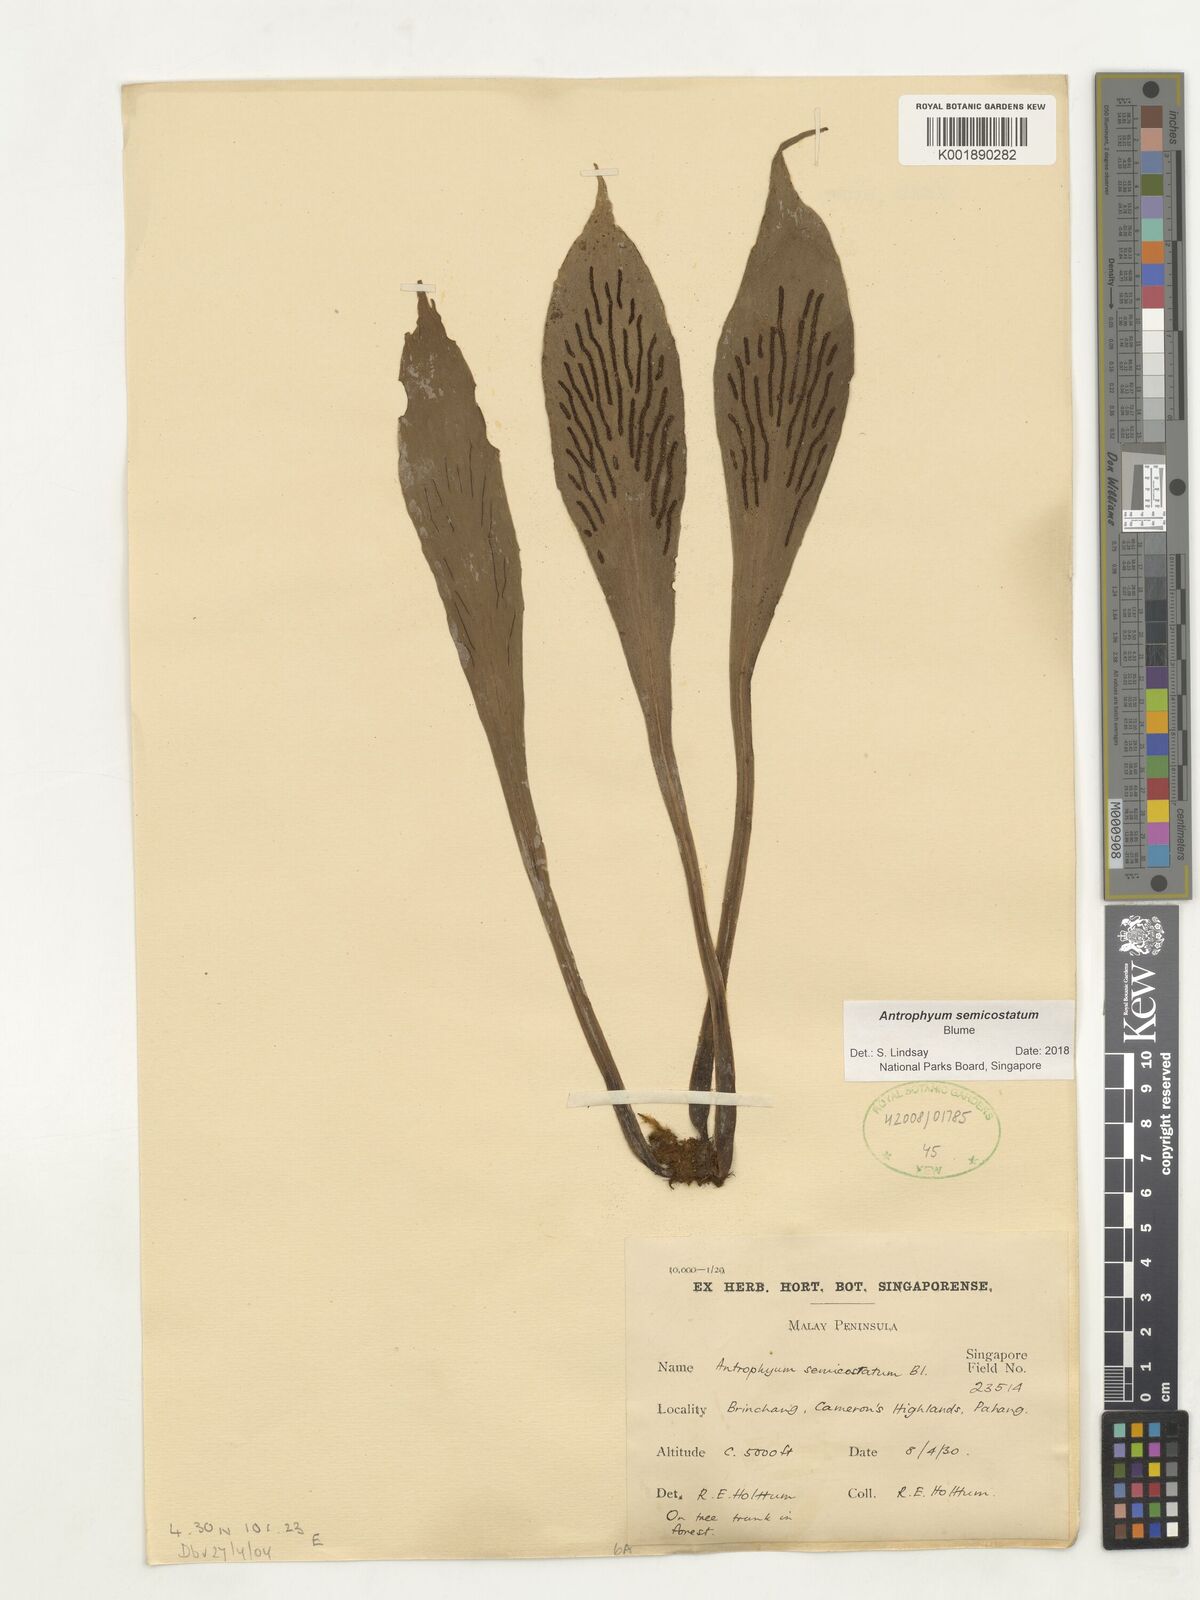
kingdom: Plantae
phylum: Tracheophyta
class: Polypodiopsida
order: Polypodiales
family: Pteridaceae
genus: Antrophyum
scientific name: Antrophyum semicostatum
